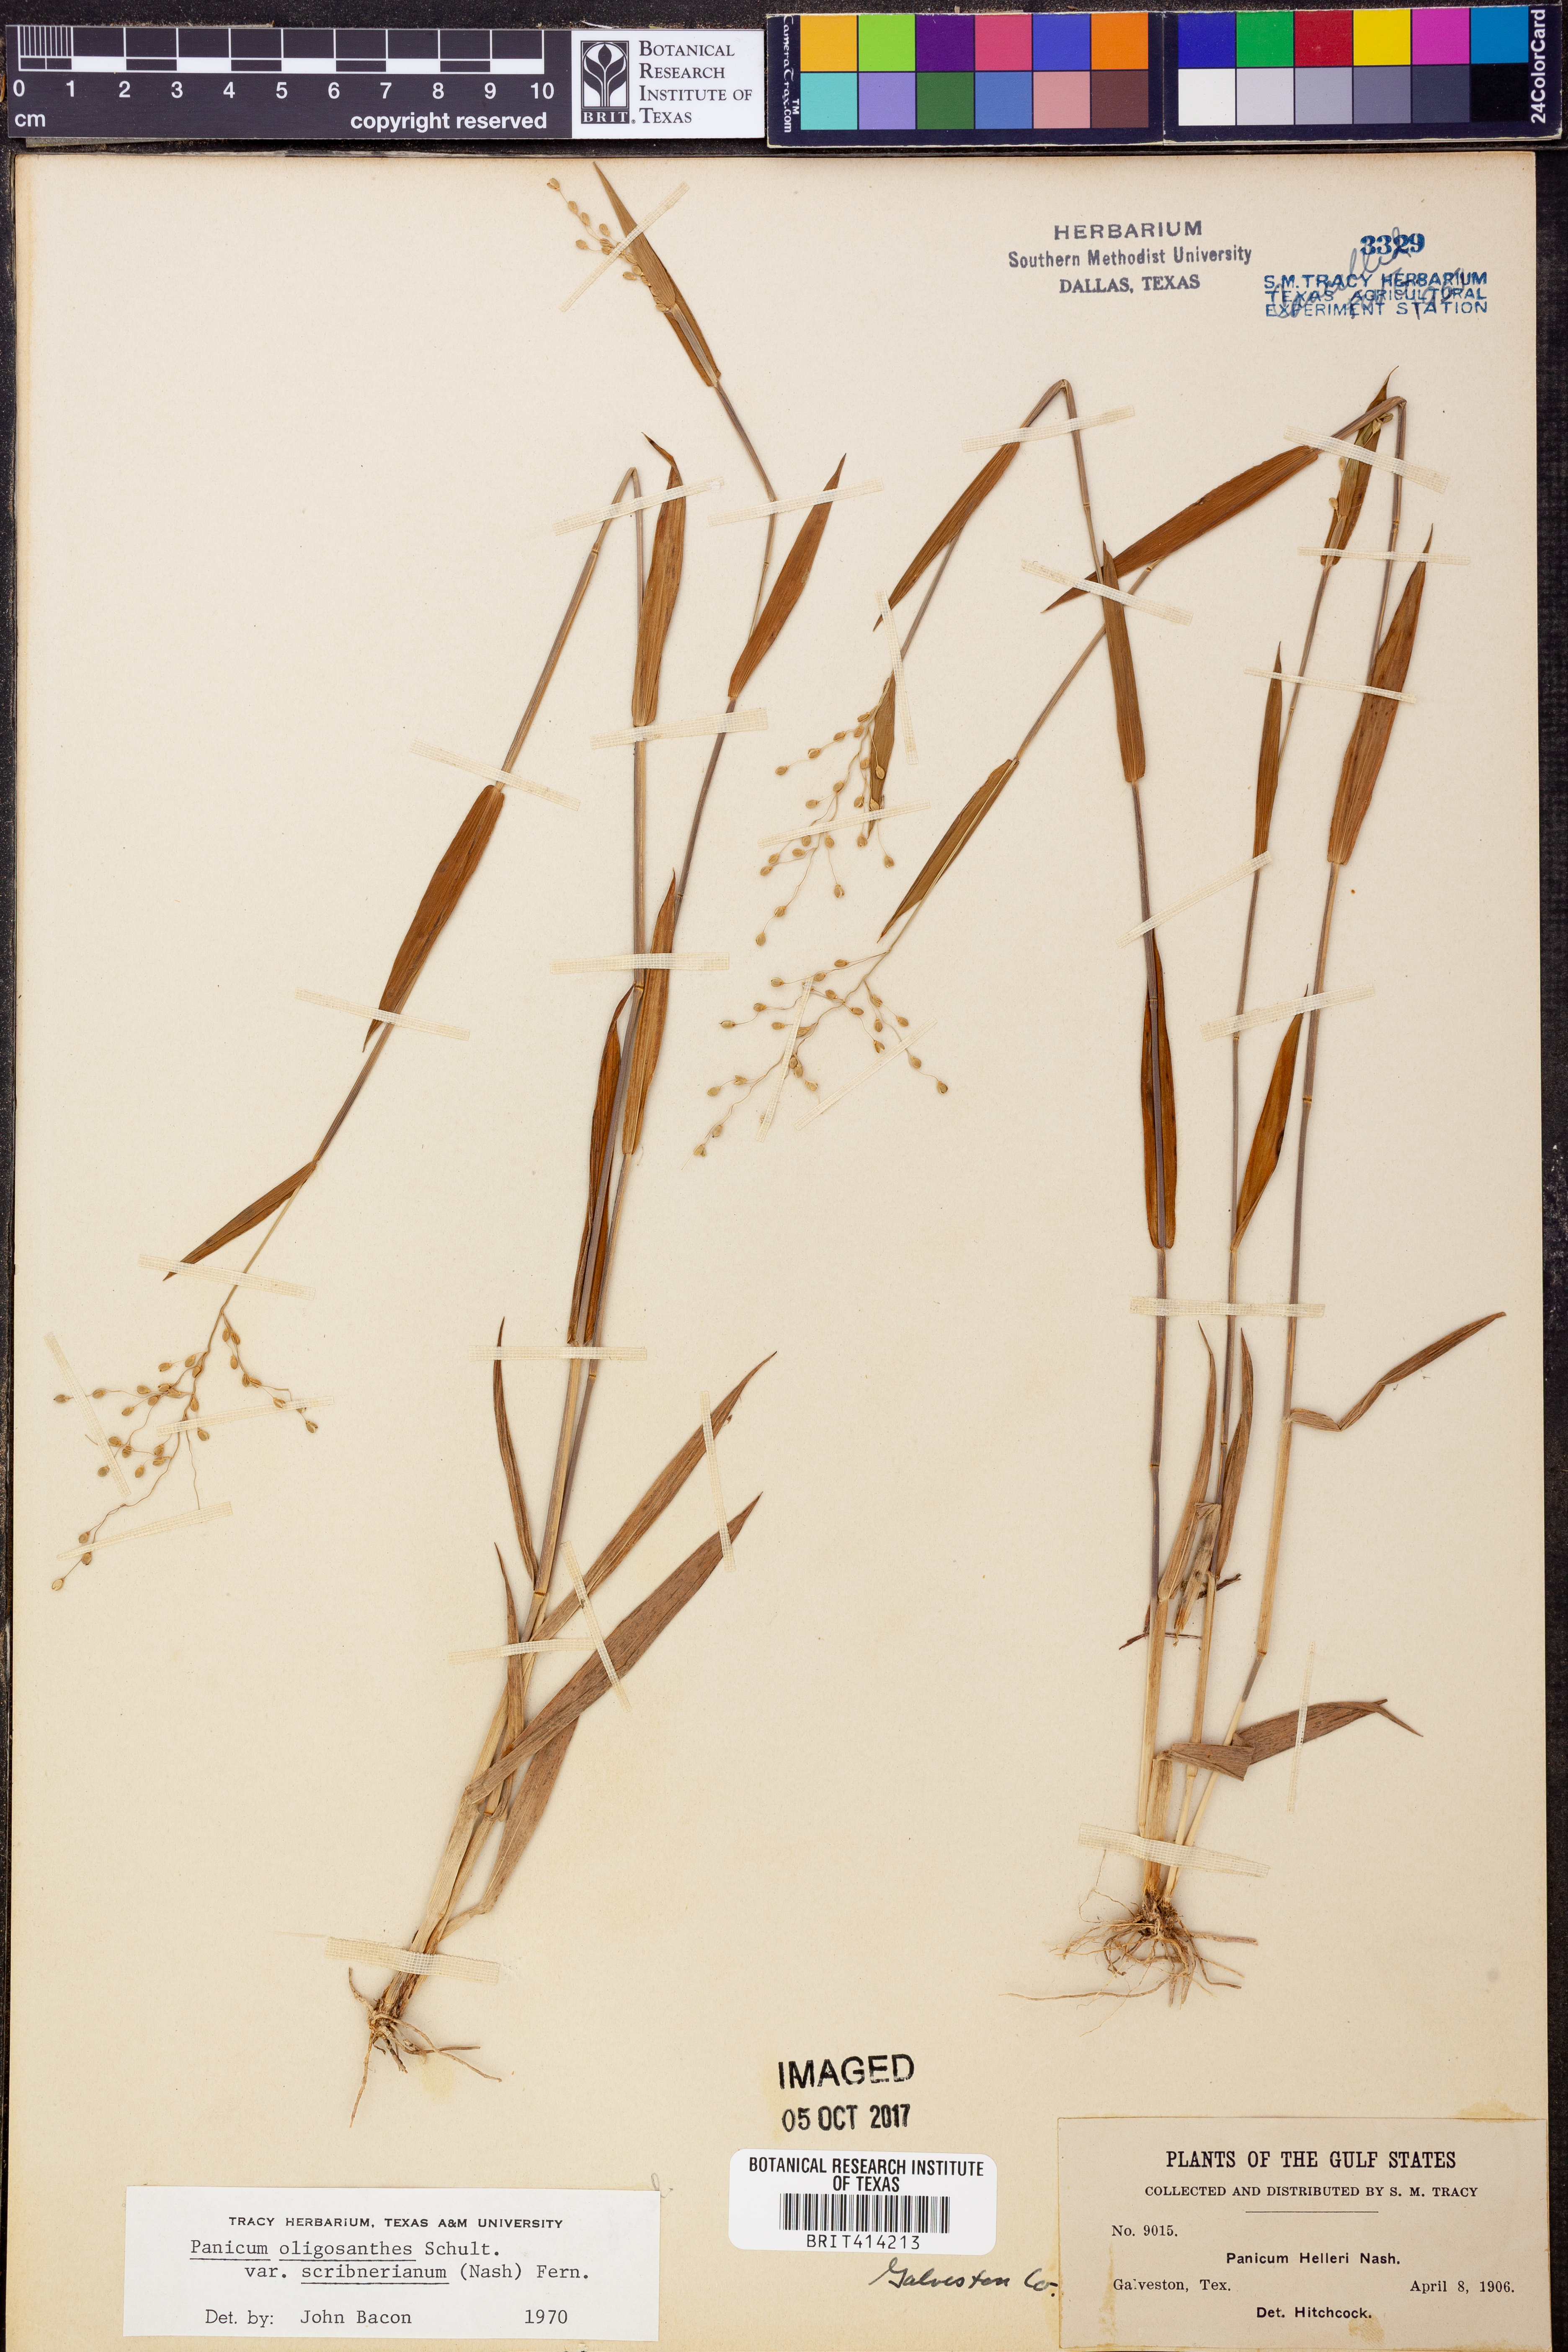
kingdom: Plantae
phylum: Tracheophyta
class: Liliopsida
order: Poales
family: Poaceae
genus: Dichanthelium
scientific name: Dichanthelium scribnerianum
